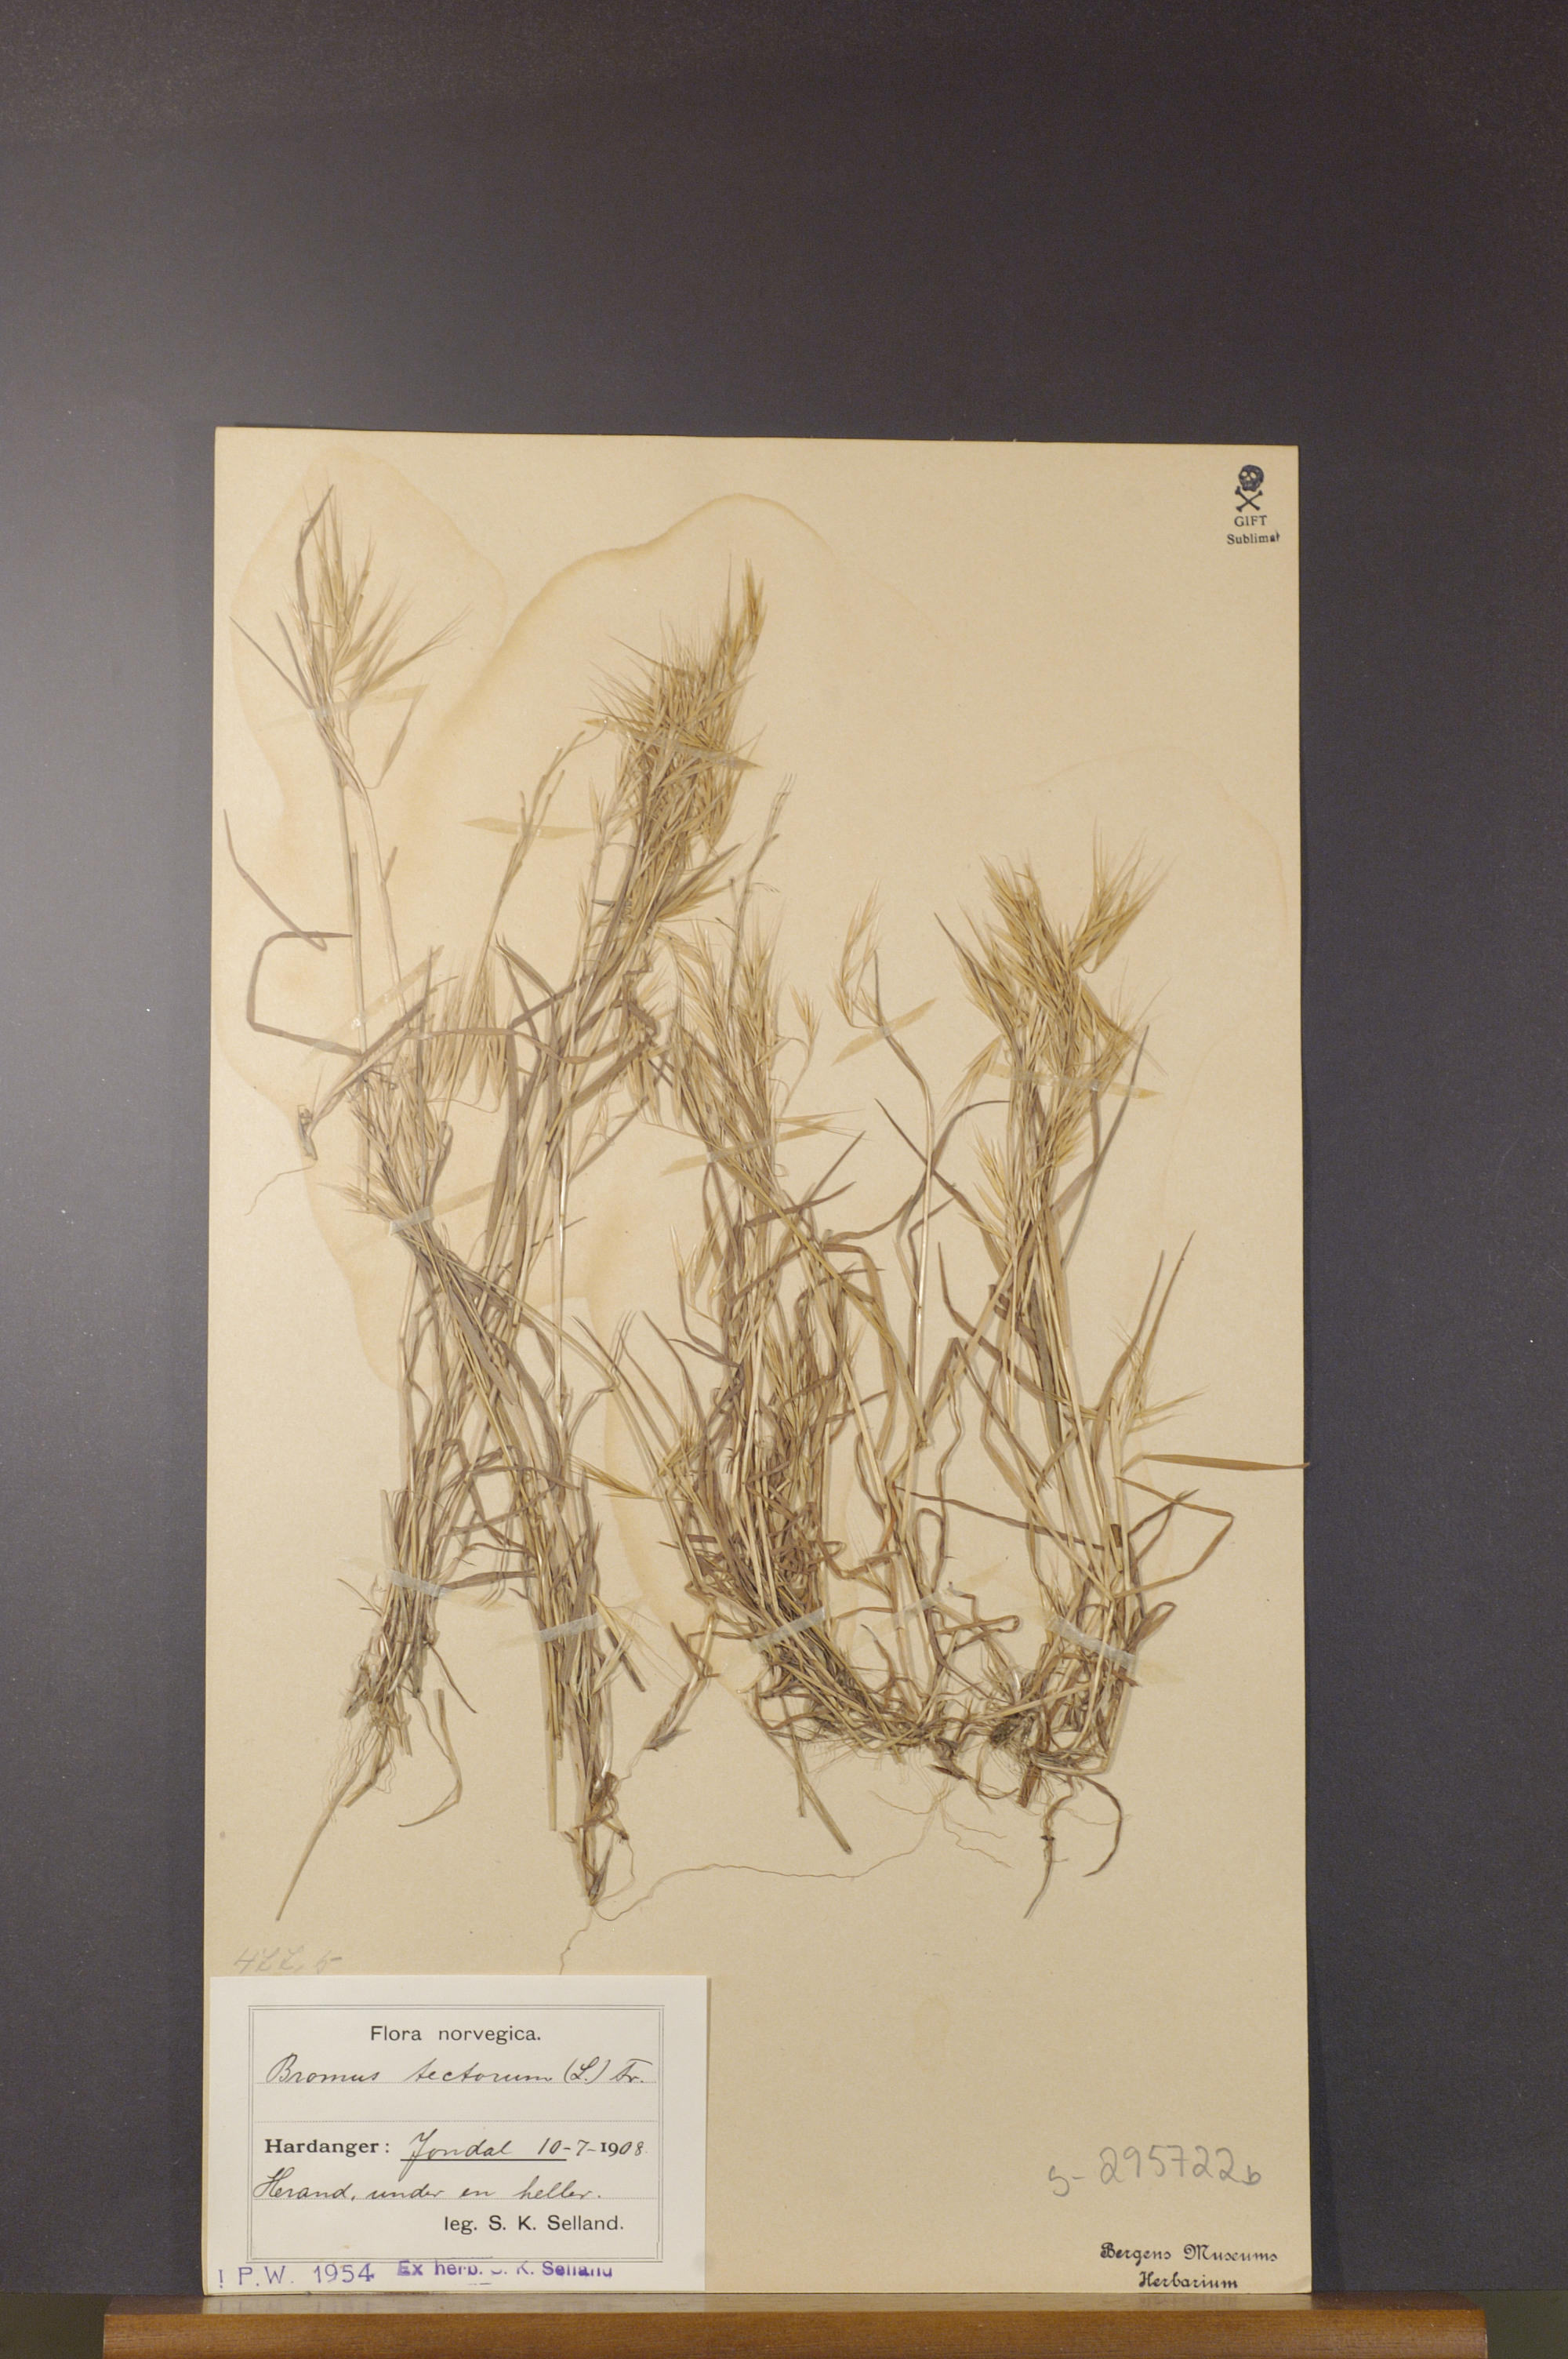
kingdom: Plantae
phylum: Tracheophyta
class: Liliopsida
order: Poales
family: Poaceae
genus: Bromus
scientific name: Bromus tectorum
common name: Cheatgrass
